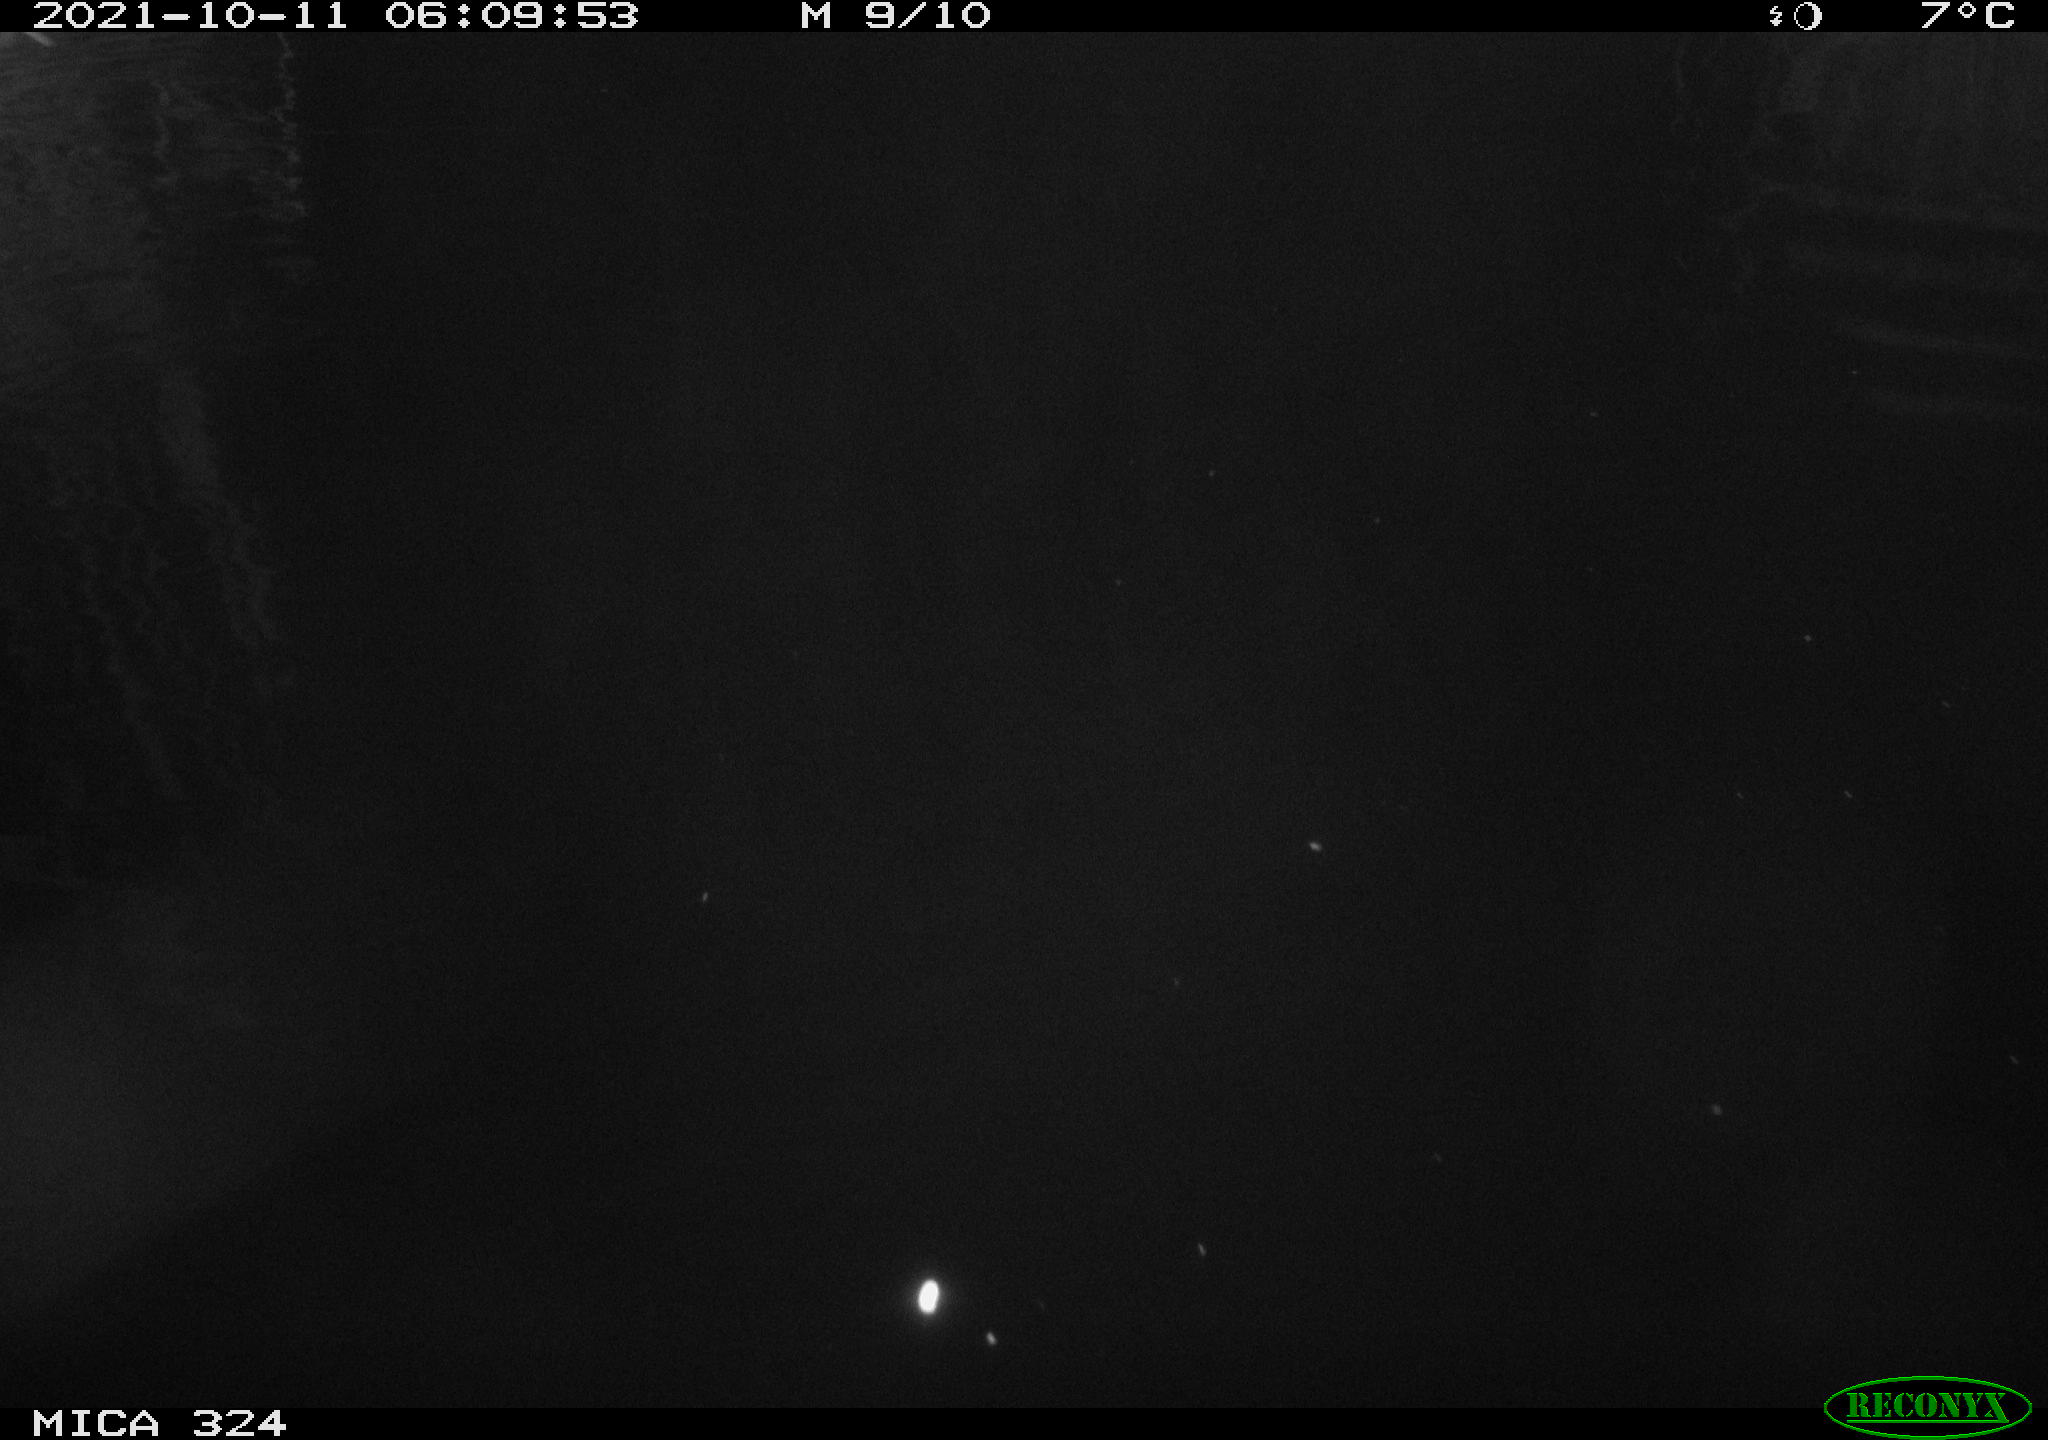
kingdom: Animalia
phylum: Chordata
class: Mammalia
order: Rodentia
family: Cricetidae
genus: Ondatra
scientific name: Ondatra zibethicus
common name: Muskrat
